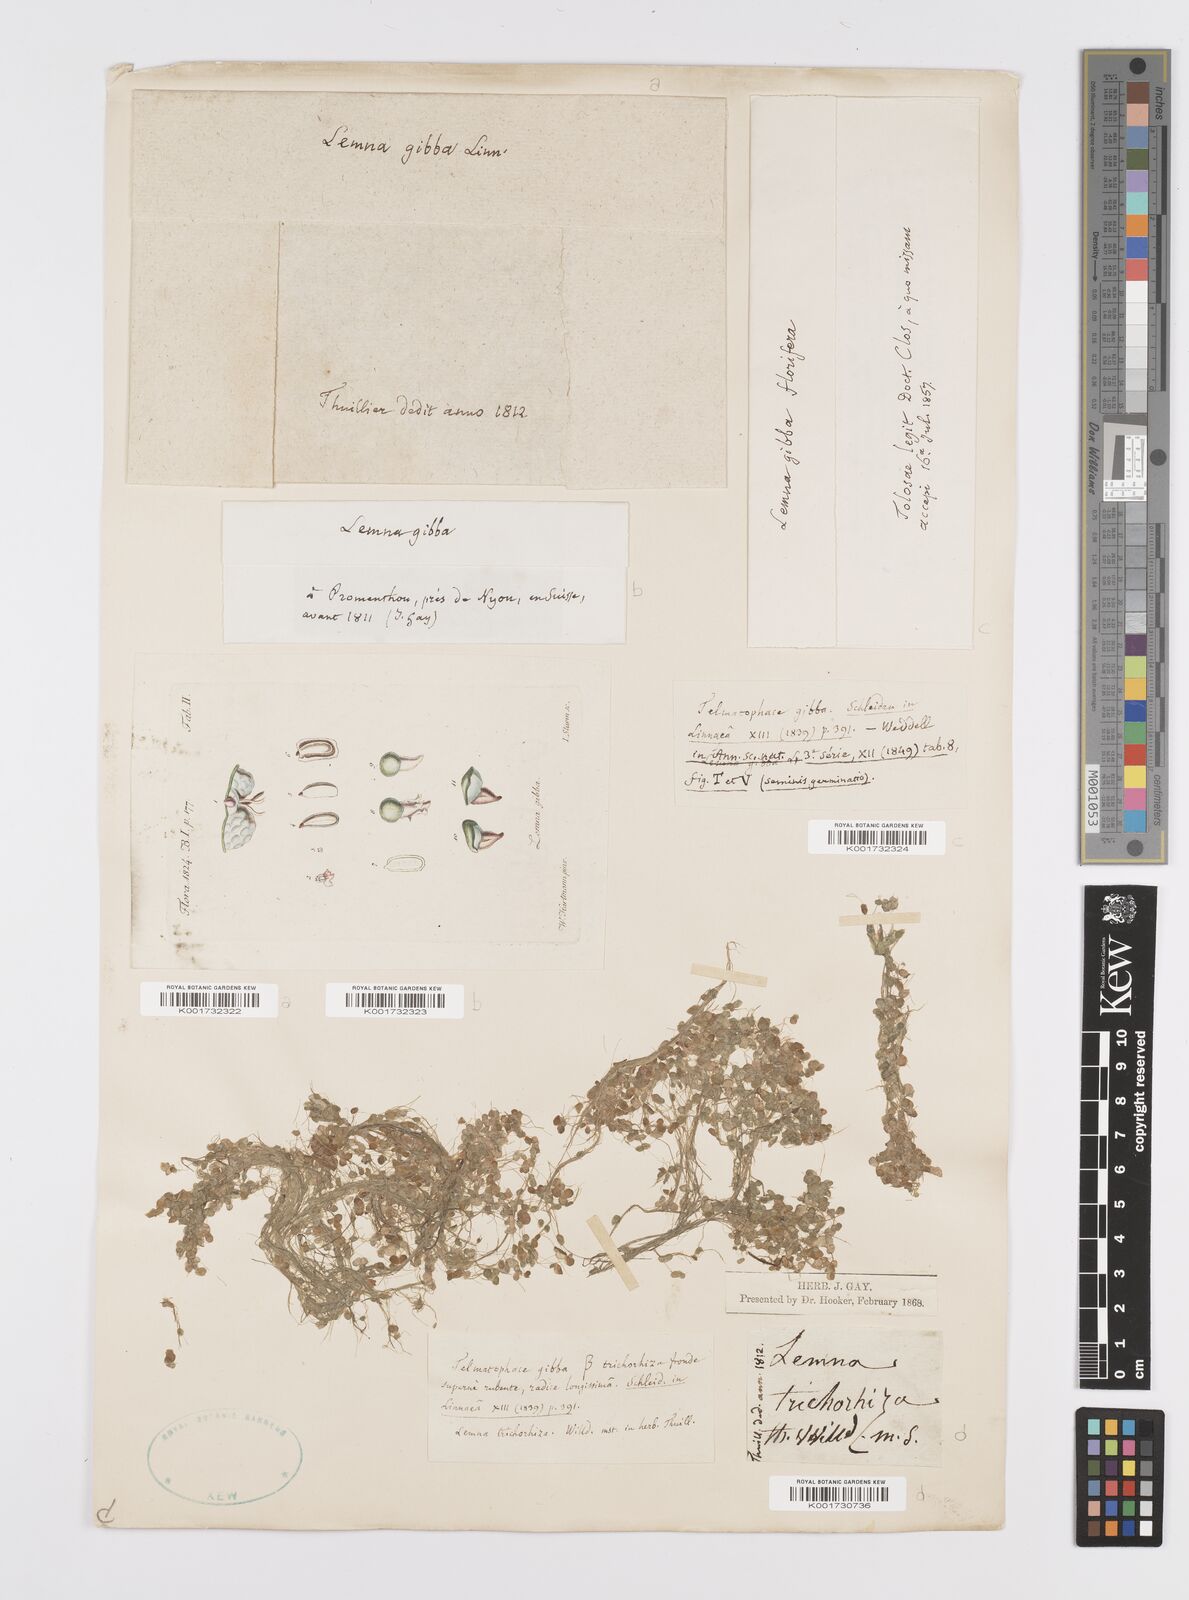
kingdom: Plantae
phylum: Tracheophyta
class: Liliopsida
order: Alismatales
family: Araceae
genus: Lemna
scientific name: Lemna gibba
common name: Fat duckweed
